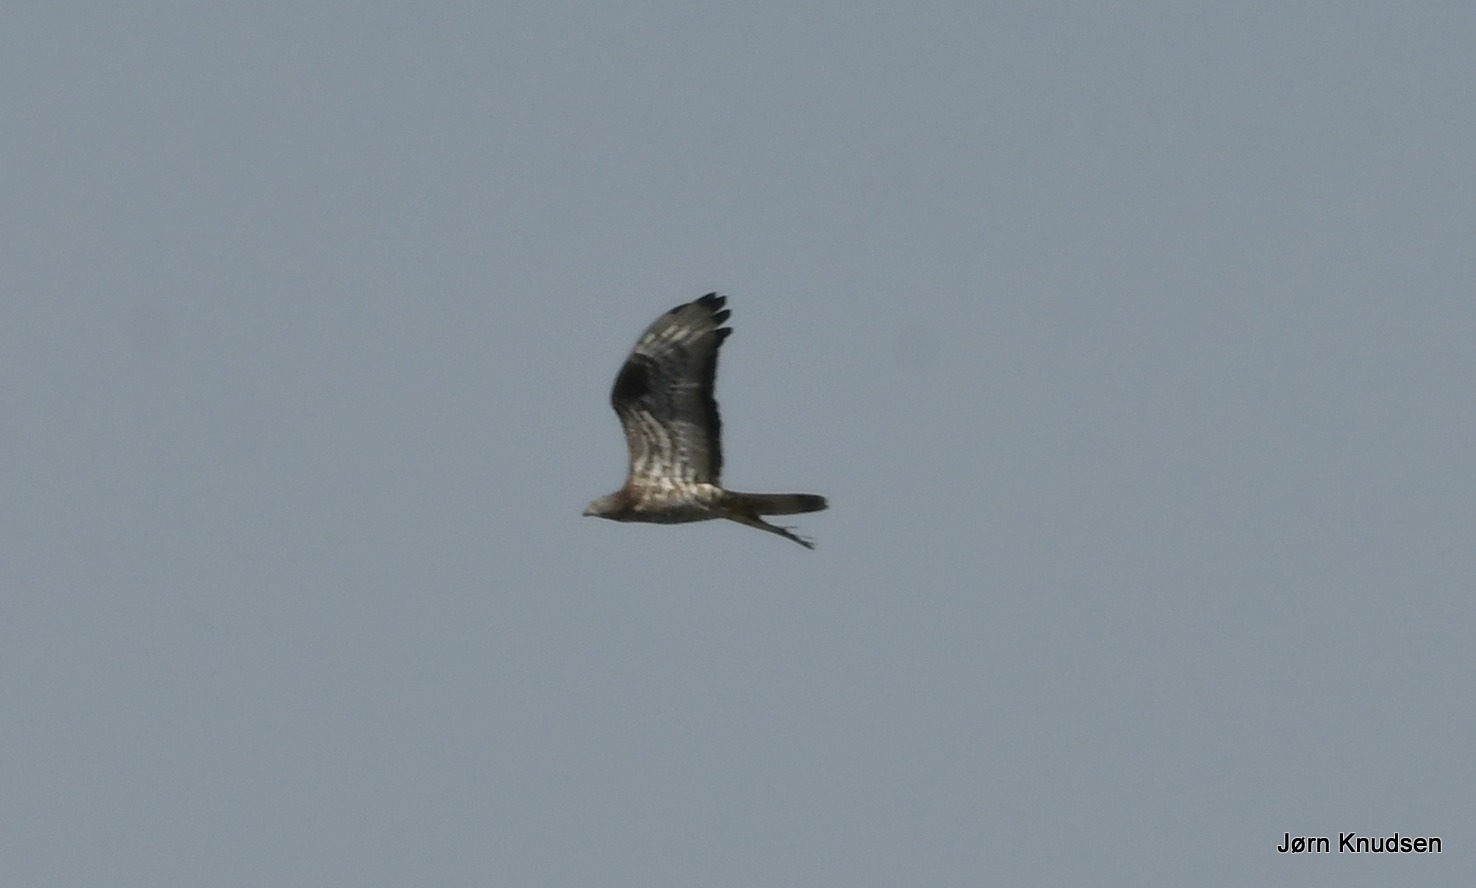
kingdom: Animalia
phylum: Chordata
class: Aves
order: Accipitriformes
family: Accipitridae
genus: Pernis
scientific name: Pernis apivorus
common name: Hvepsevåge
